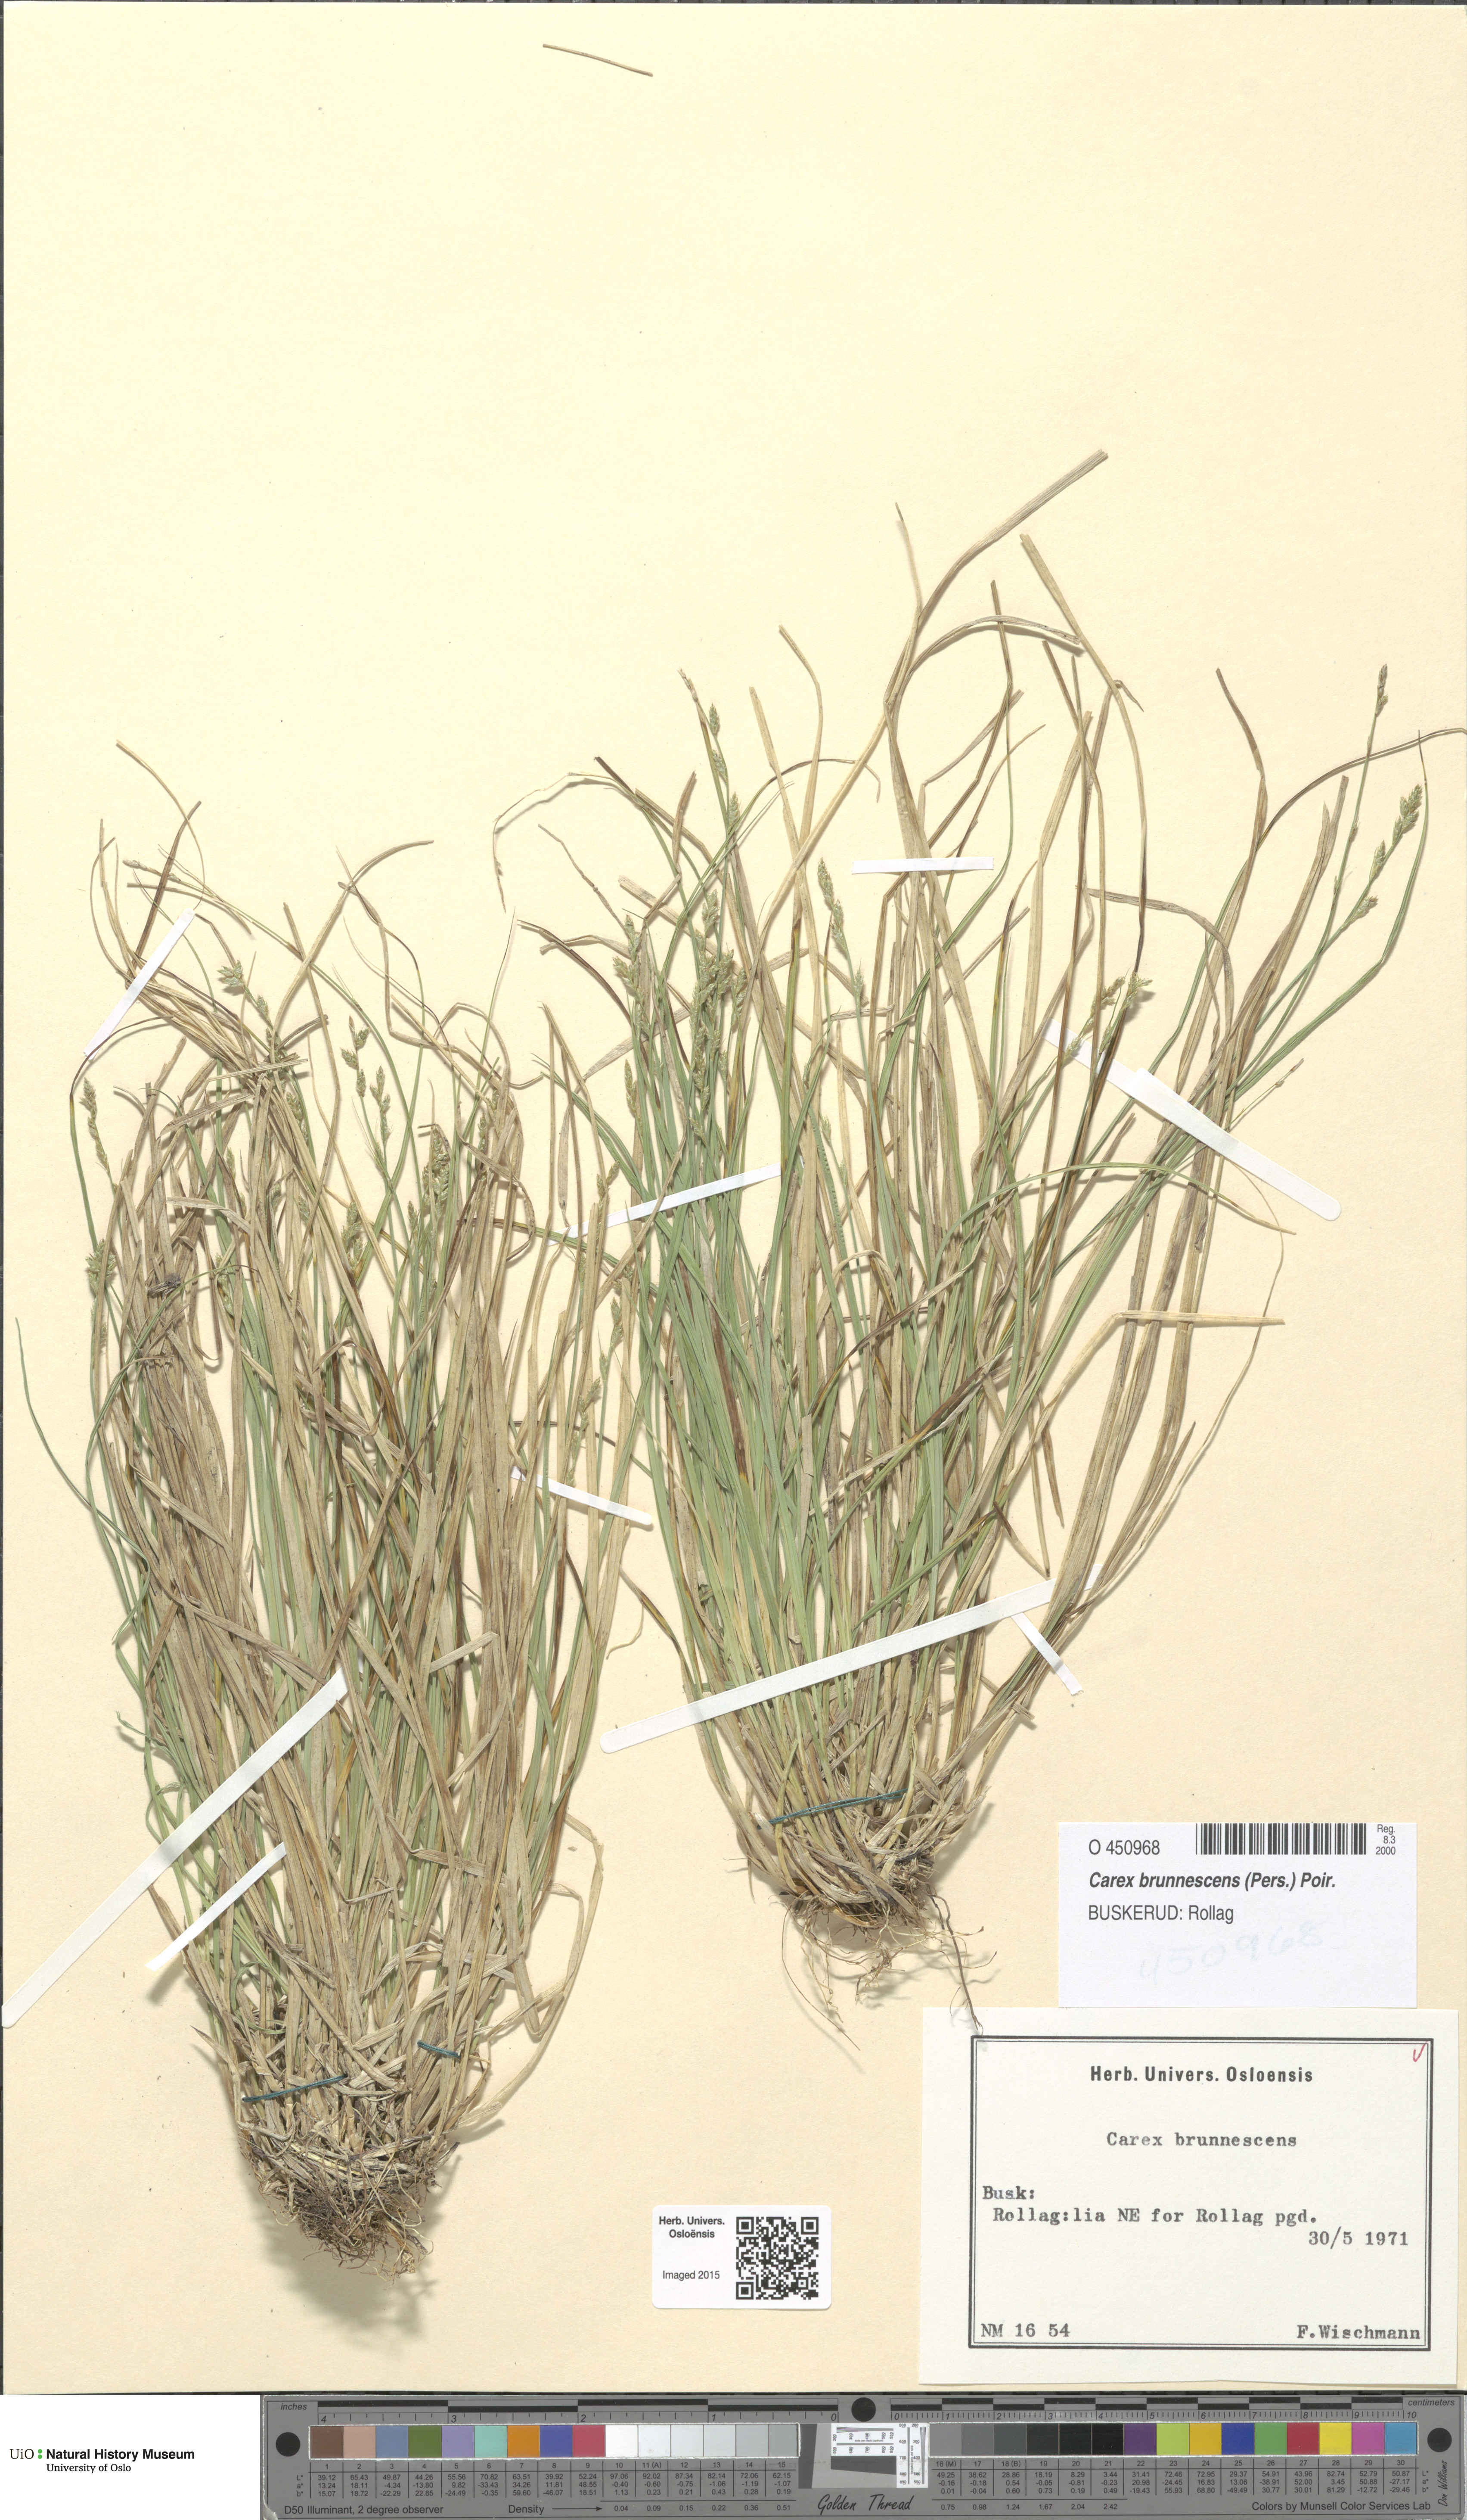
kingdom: Plantae
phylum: Tracheophyta
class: Liliopsida
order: Poales
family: Cyperaceae
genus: Carex
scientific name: Carex brunnescens
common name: Brown sedge
